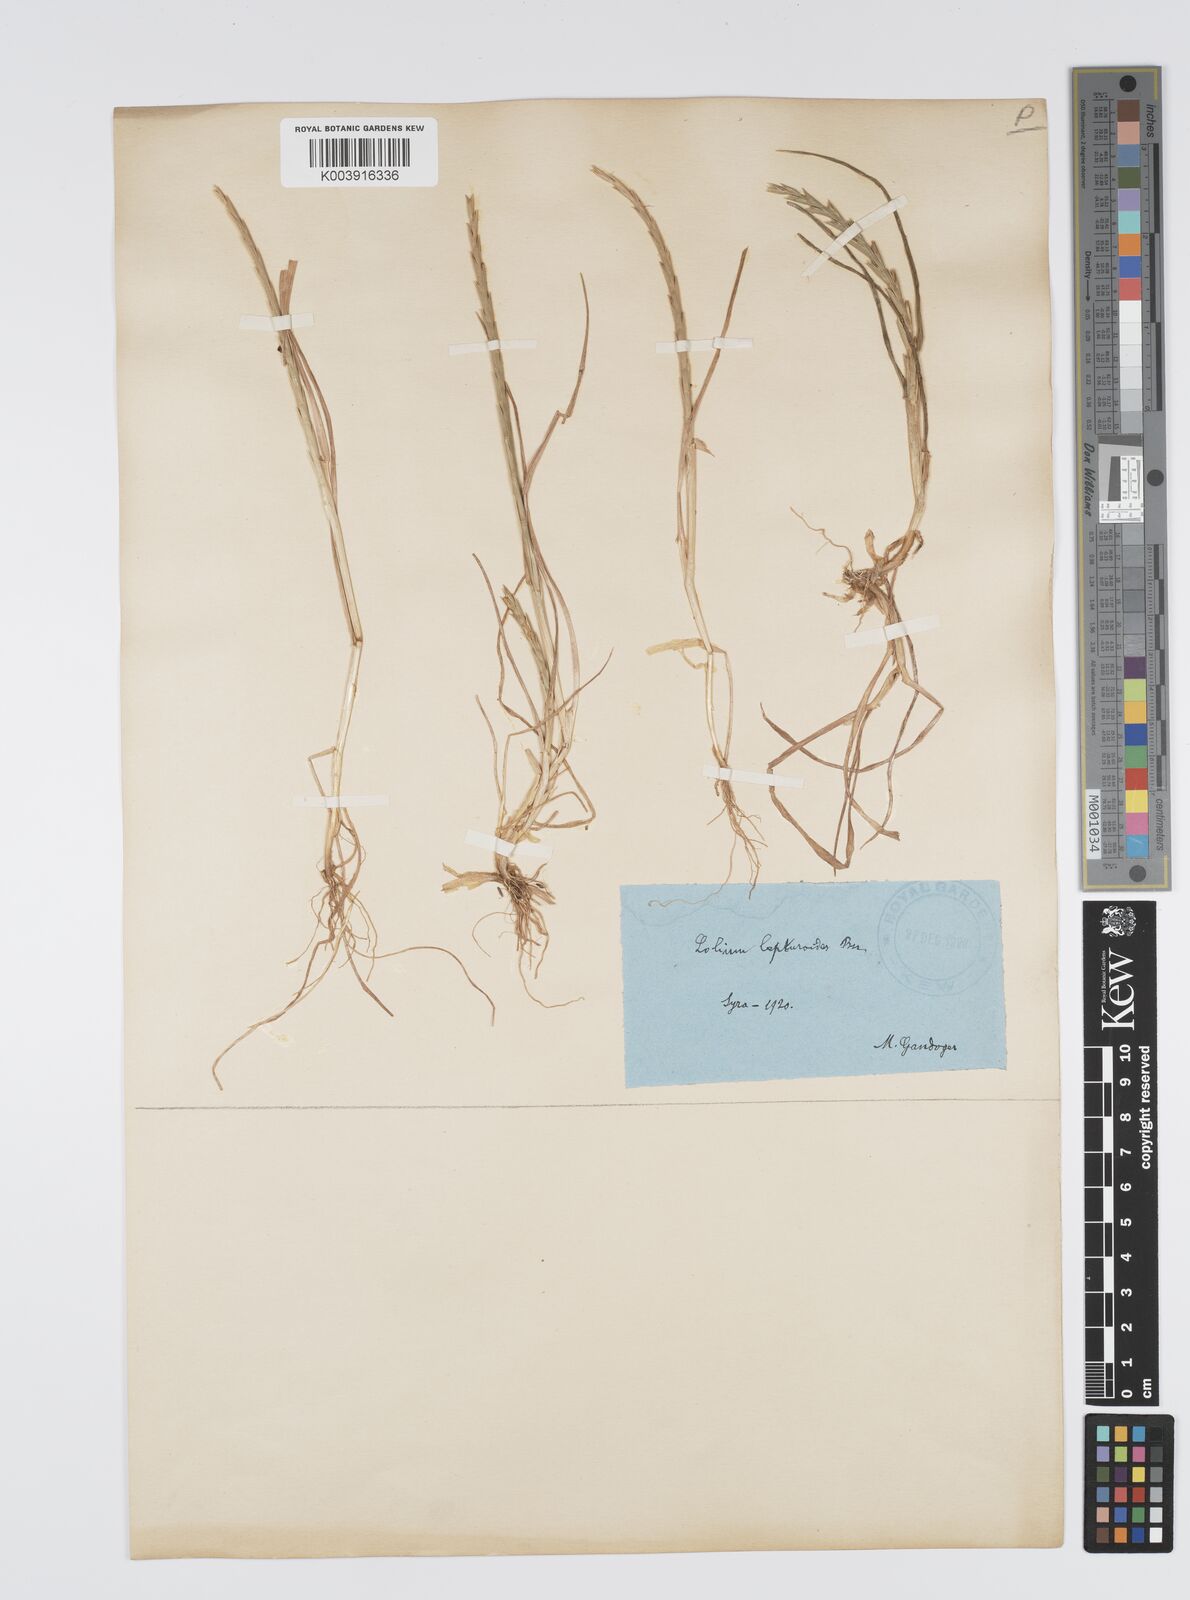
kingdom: Plantae
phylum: Tracheophyta
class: Liliopsida
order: Poales
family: Poaceae
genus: Lolium
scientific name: Lolium rigidum
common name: Wimmera ryegrass
